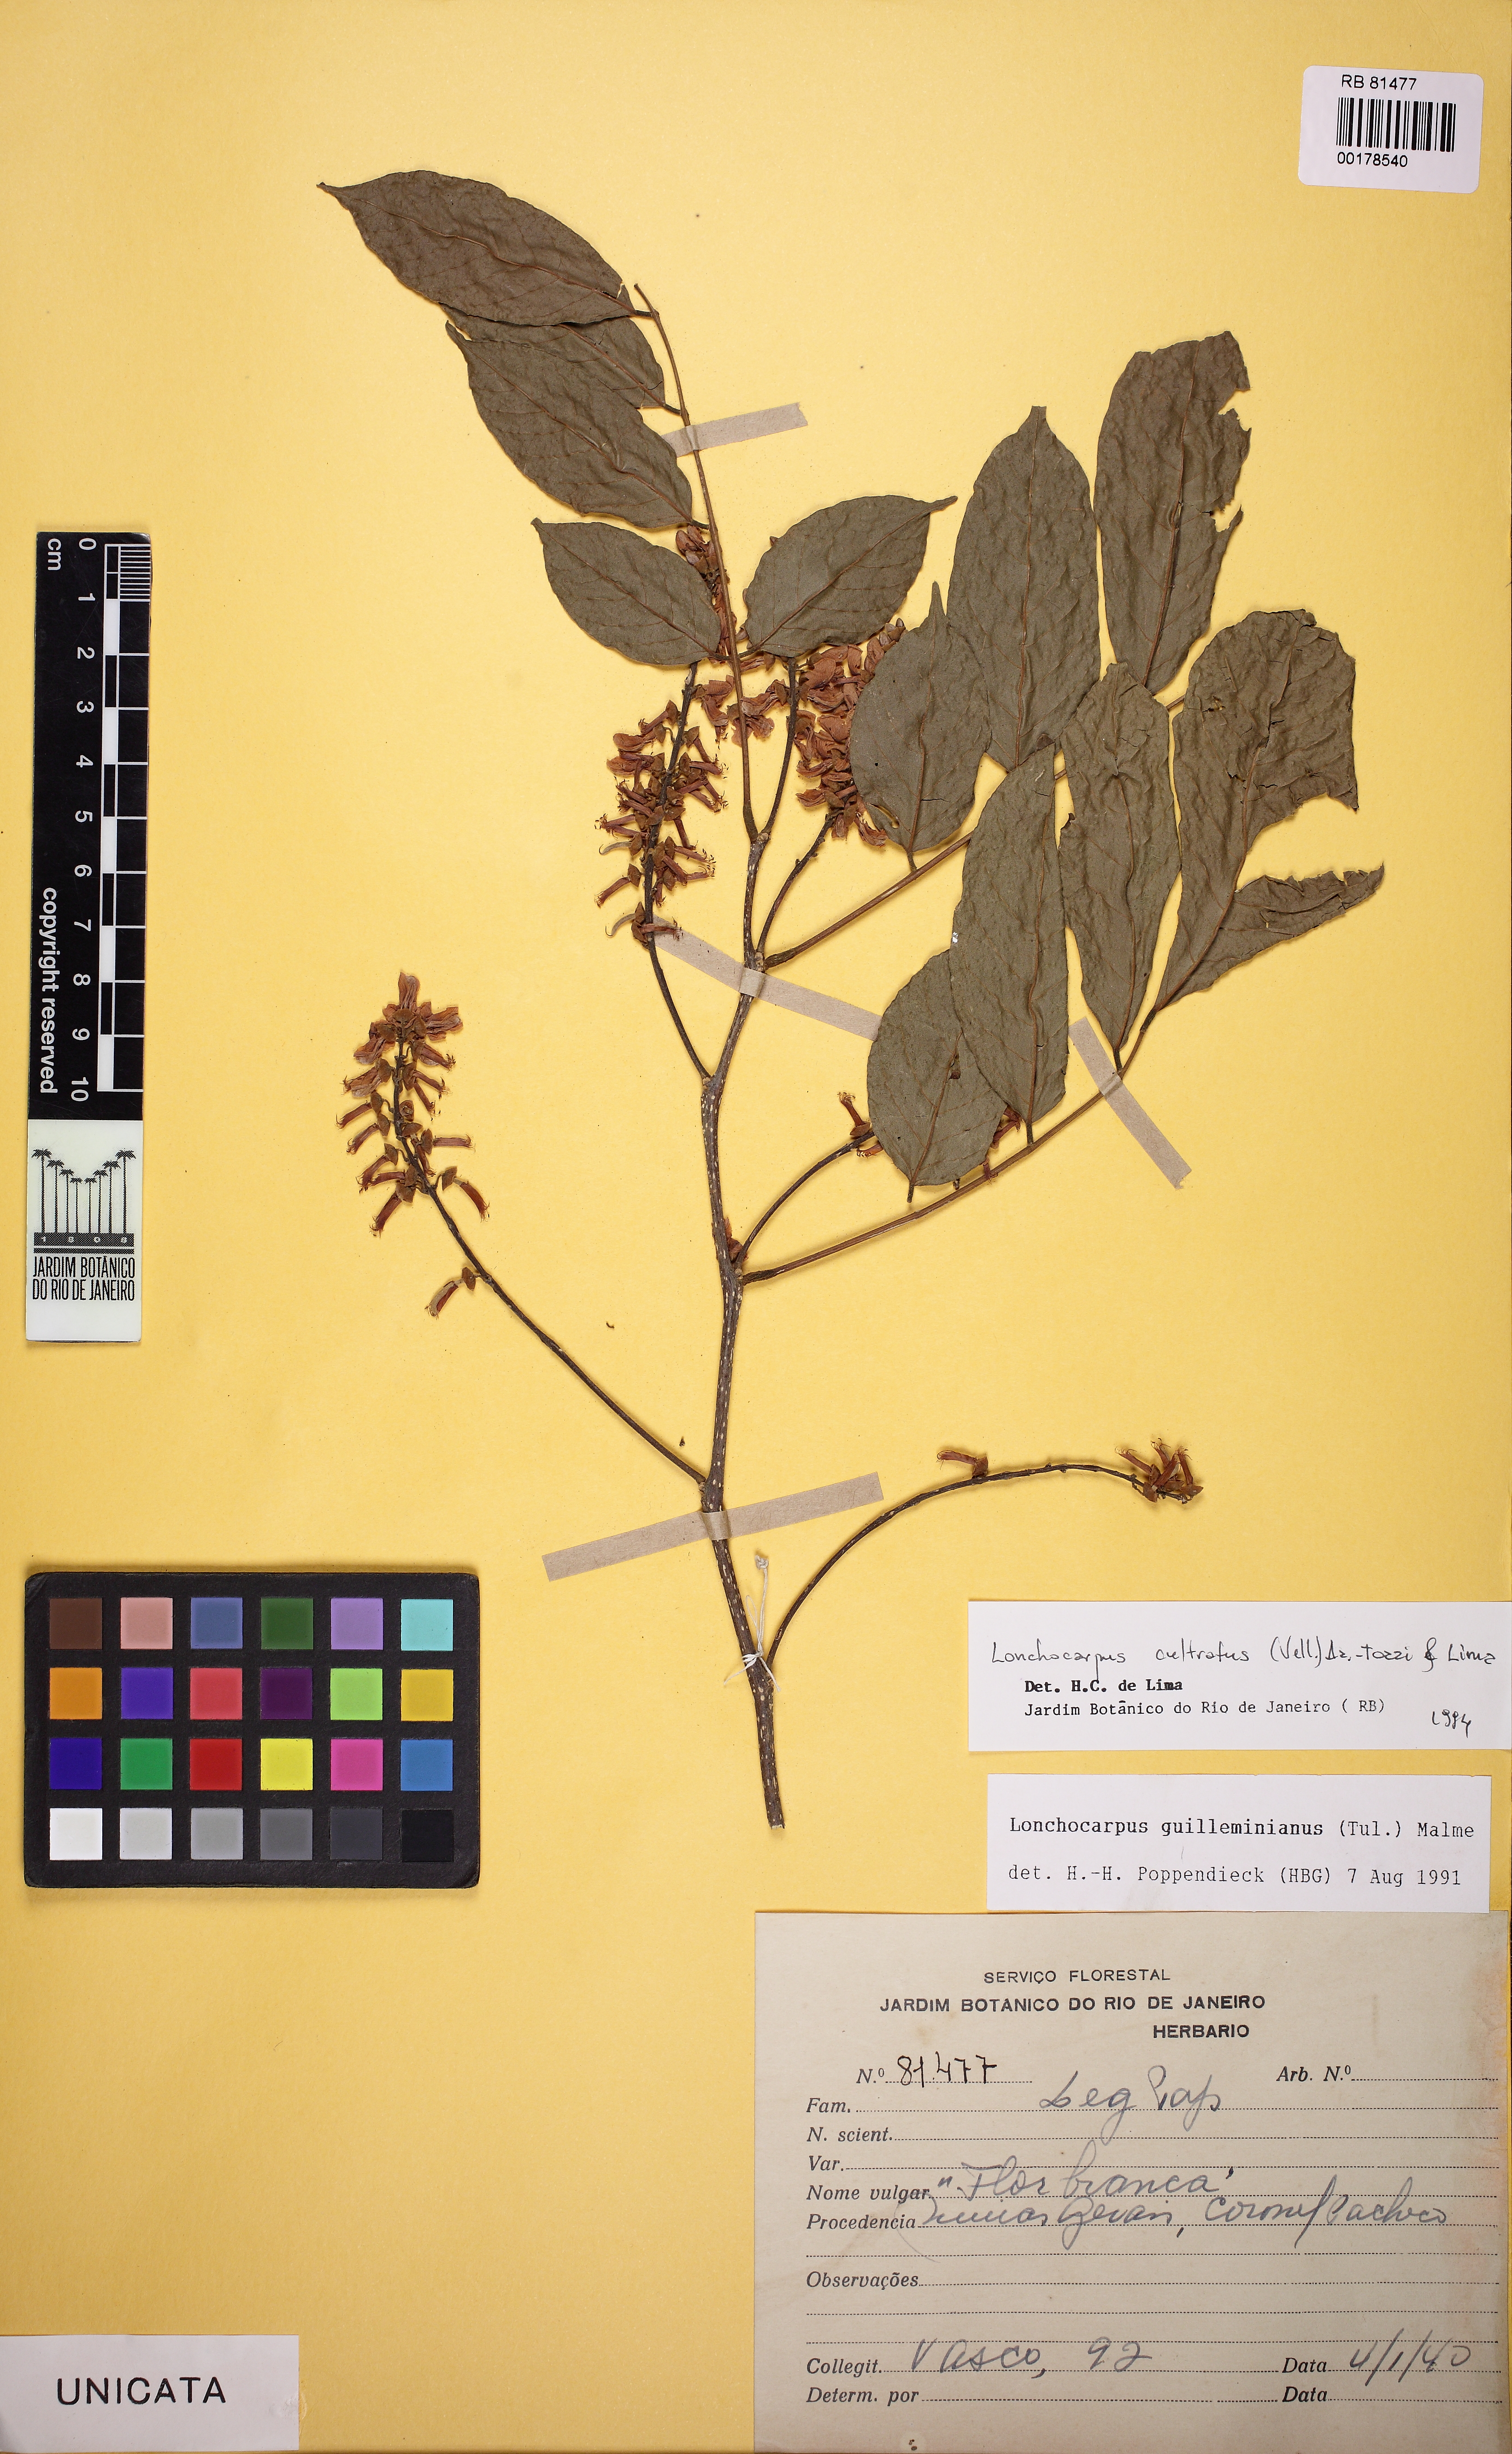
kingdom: Plantae
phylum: Tracheophyta
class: Magnoliopsida
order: Fabales
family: Fabaceae
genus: Lonchocarpus
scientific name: Lonchocarpus cultratus
